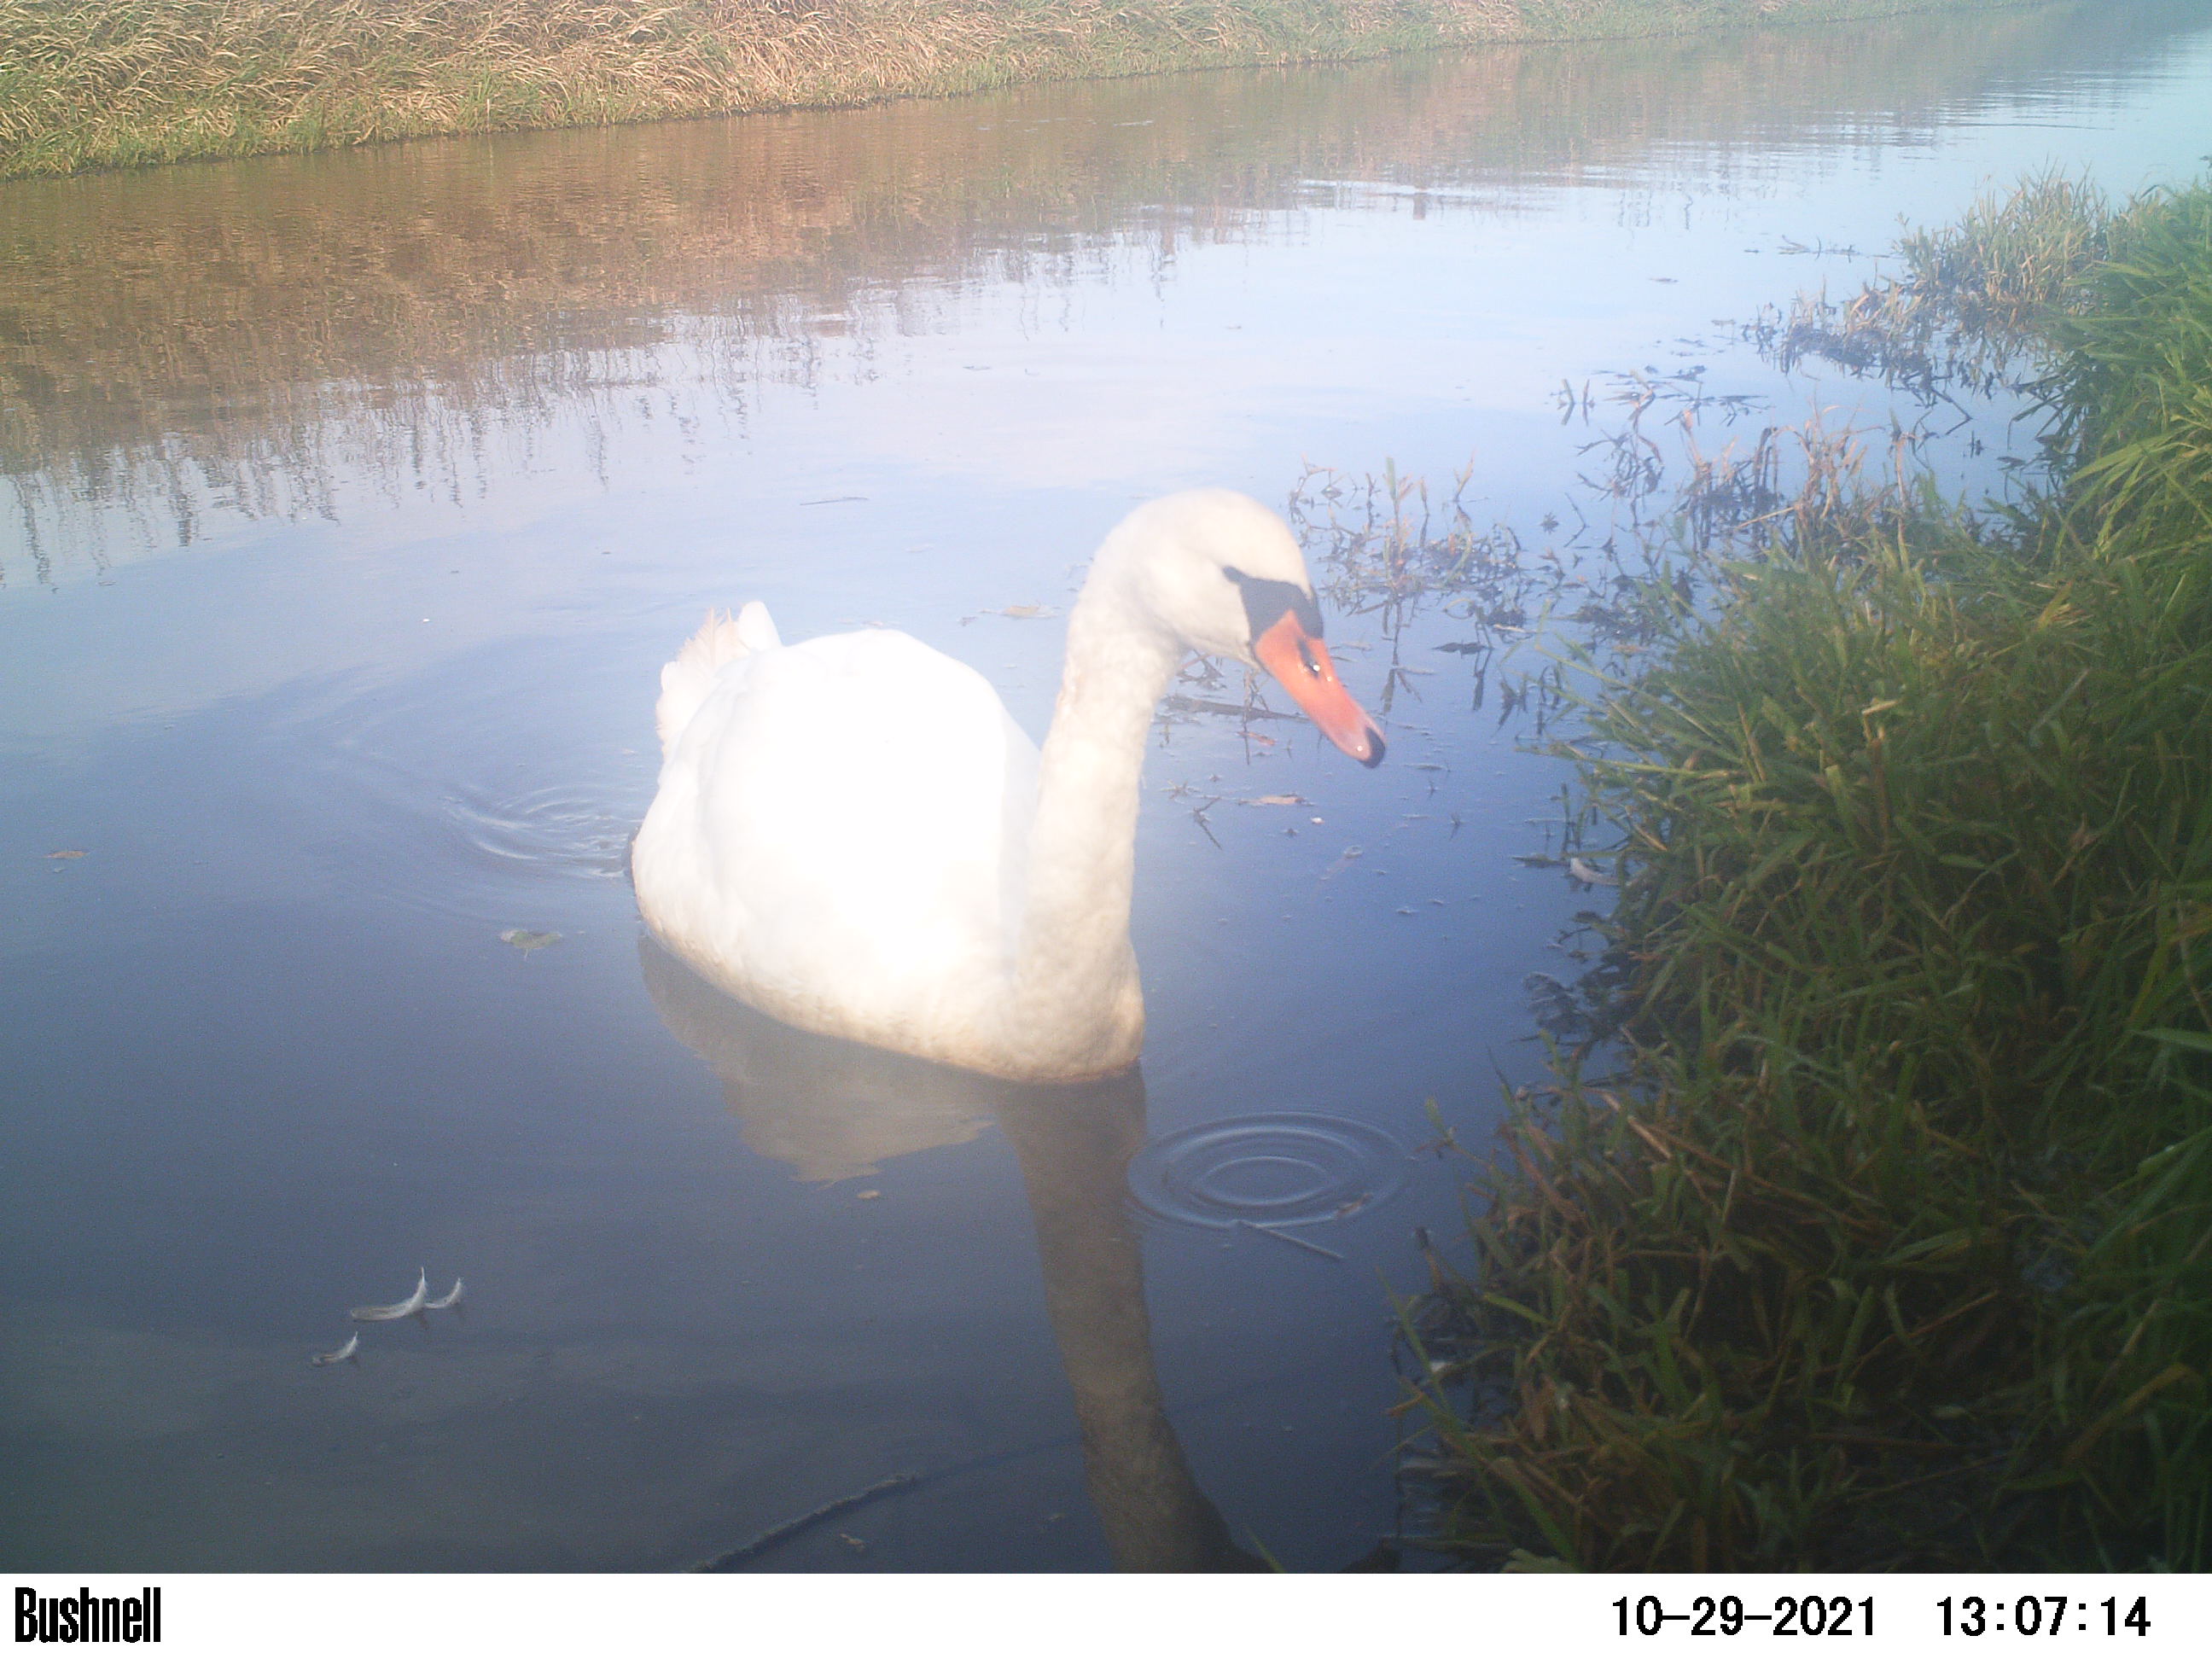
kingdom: Animalia
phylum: Chordata
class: Aves
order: Anseriformes
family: Anatidae
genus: Cygnus
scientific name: Cygnus olor
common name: Mute swan
